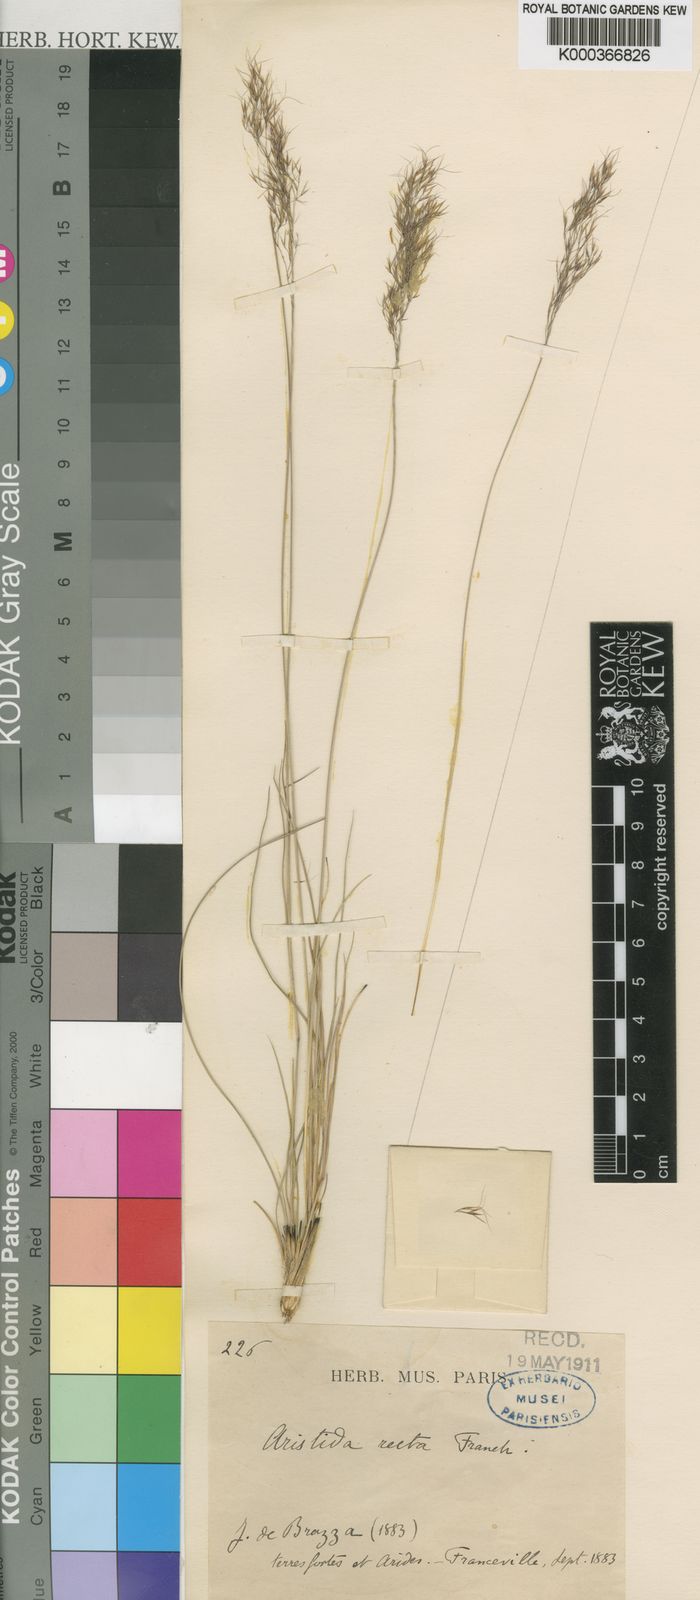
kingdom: Plantae
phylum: Tracheophyta
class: Liliopsida
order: Poales
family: Poaceae
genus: Aristida
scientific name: Aristida recta
